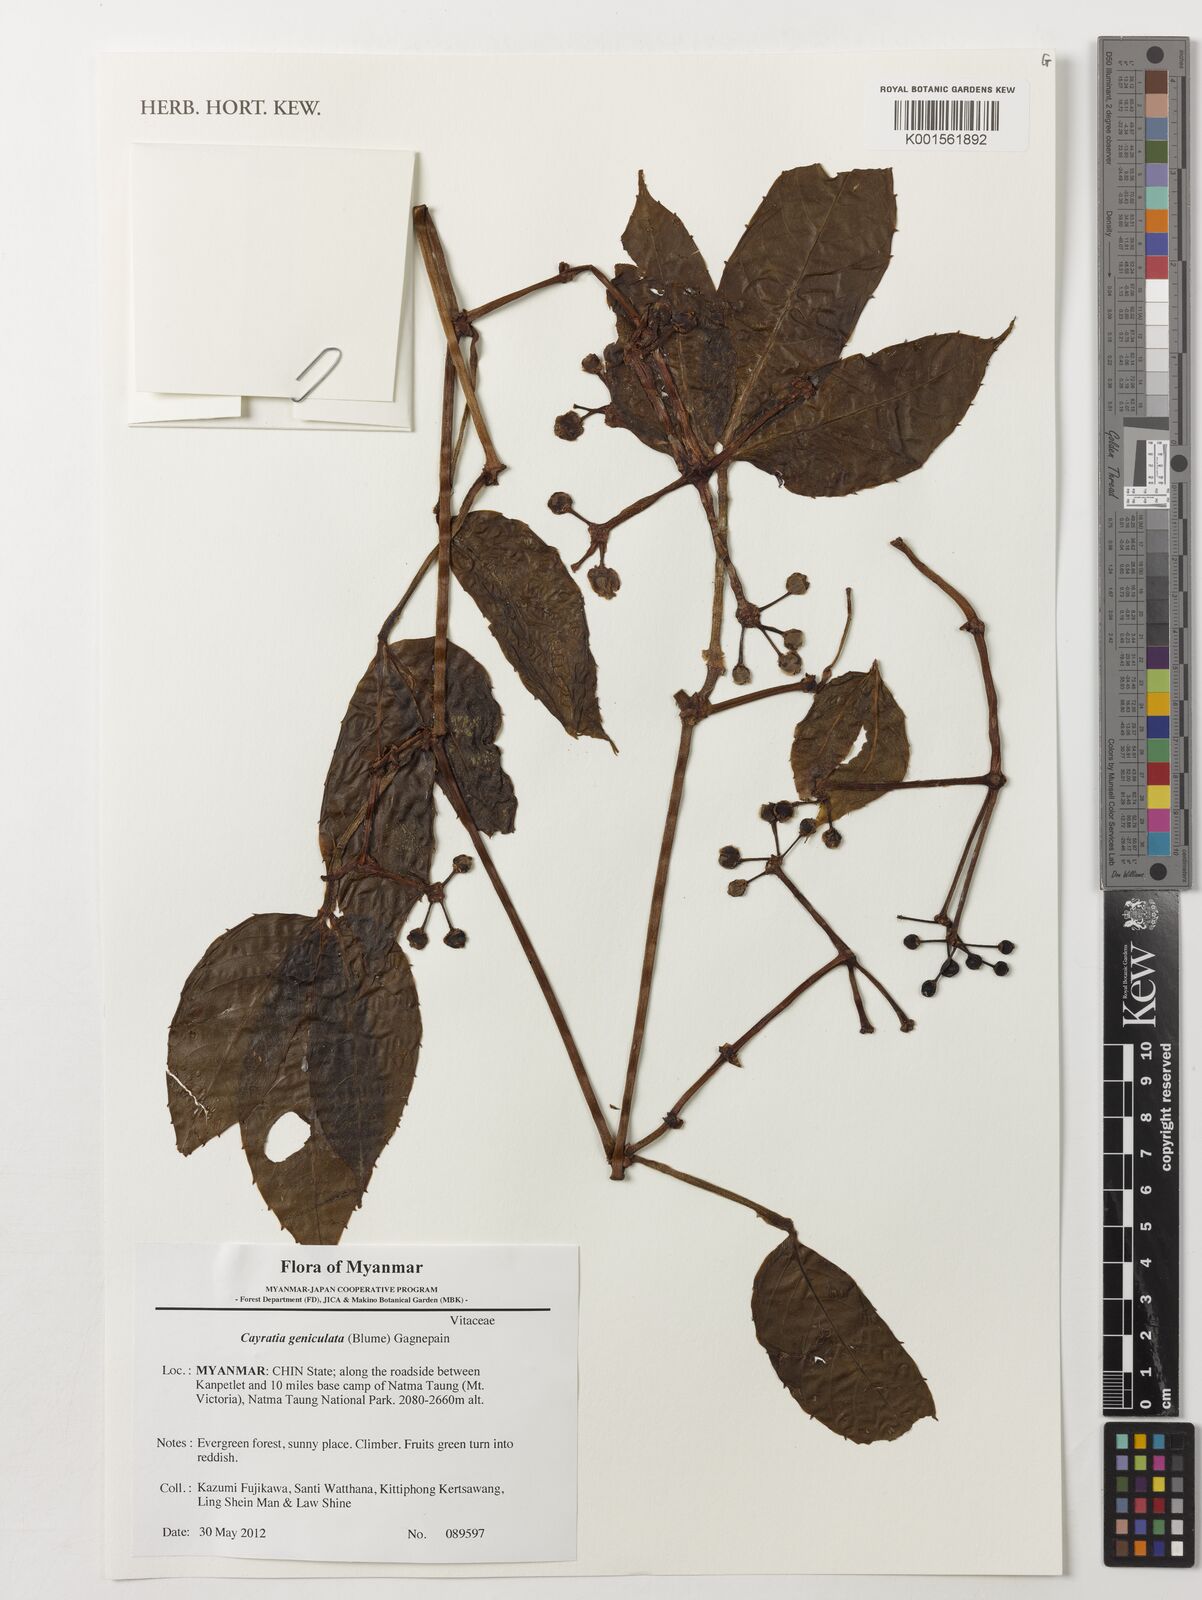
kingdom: Plantae
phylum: Tracheophyta
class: Magnoliopsida
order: Vitales
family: Vitaceae
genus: Cayratia
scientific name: Cayratia mollissima
